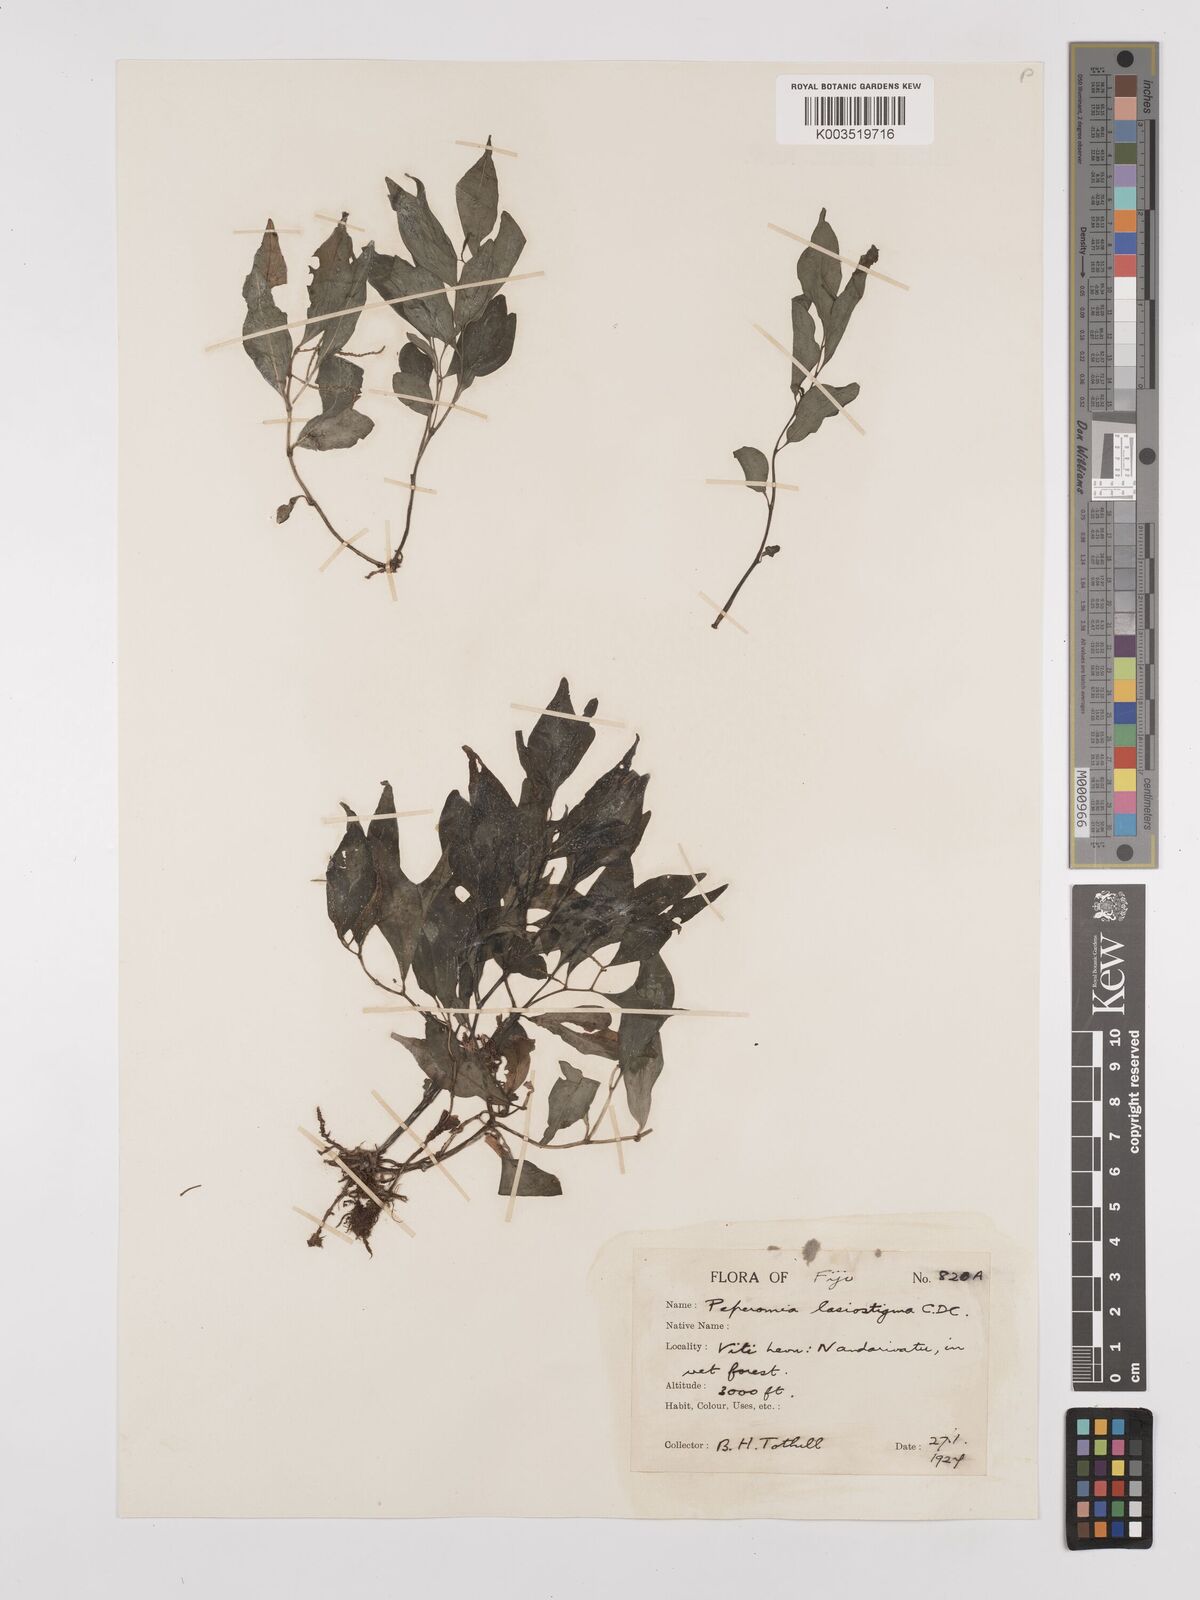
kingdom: Plantae
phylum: Tracheophyta
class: Magnoliopsida
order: Piperales
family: Piperaceae
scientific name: Piperaceae
